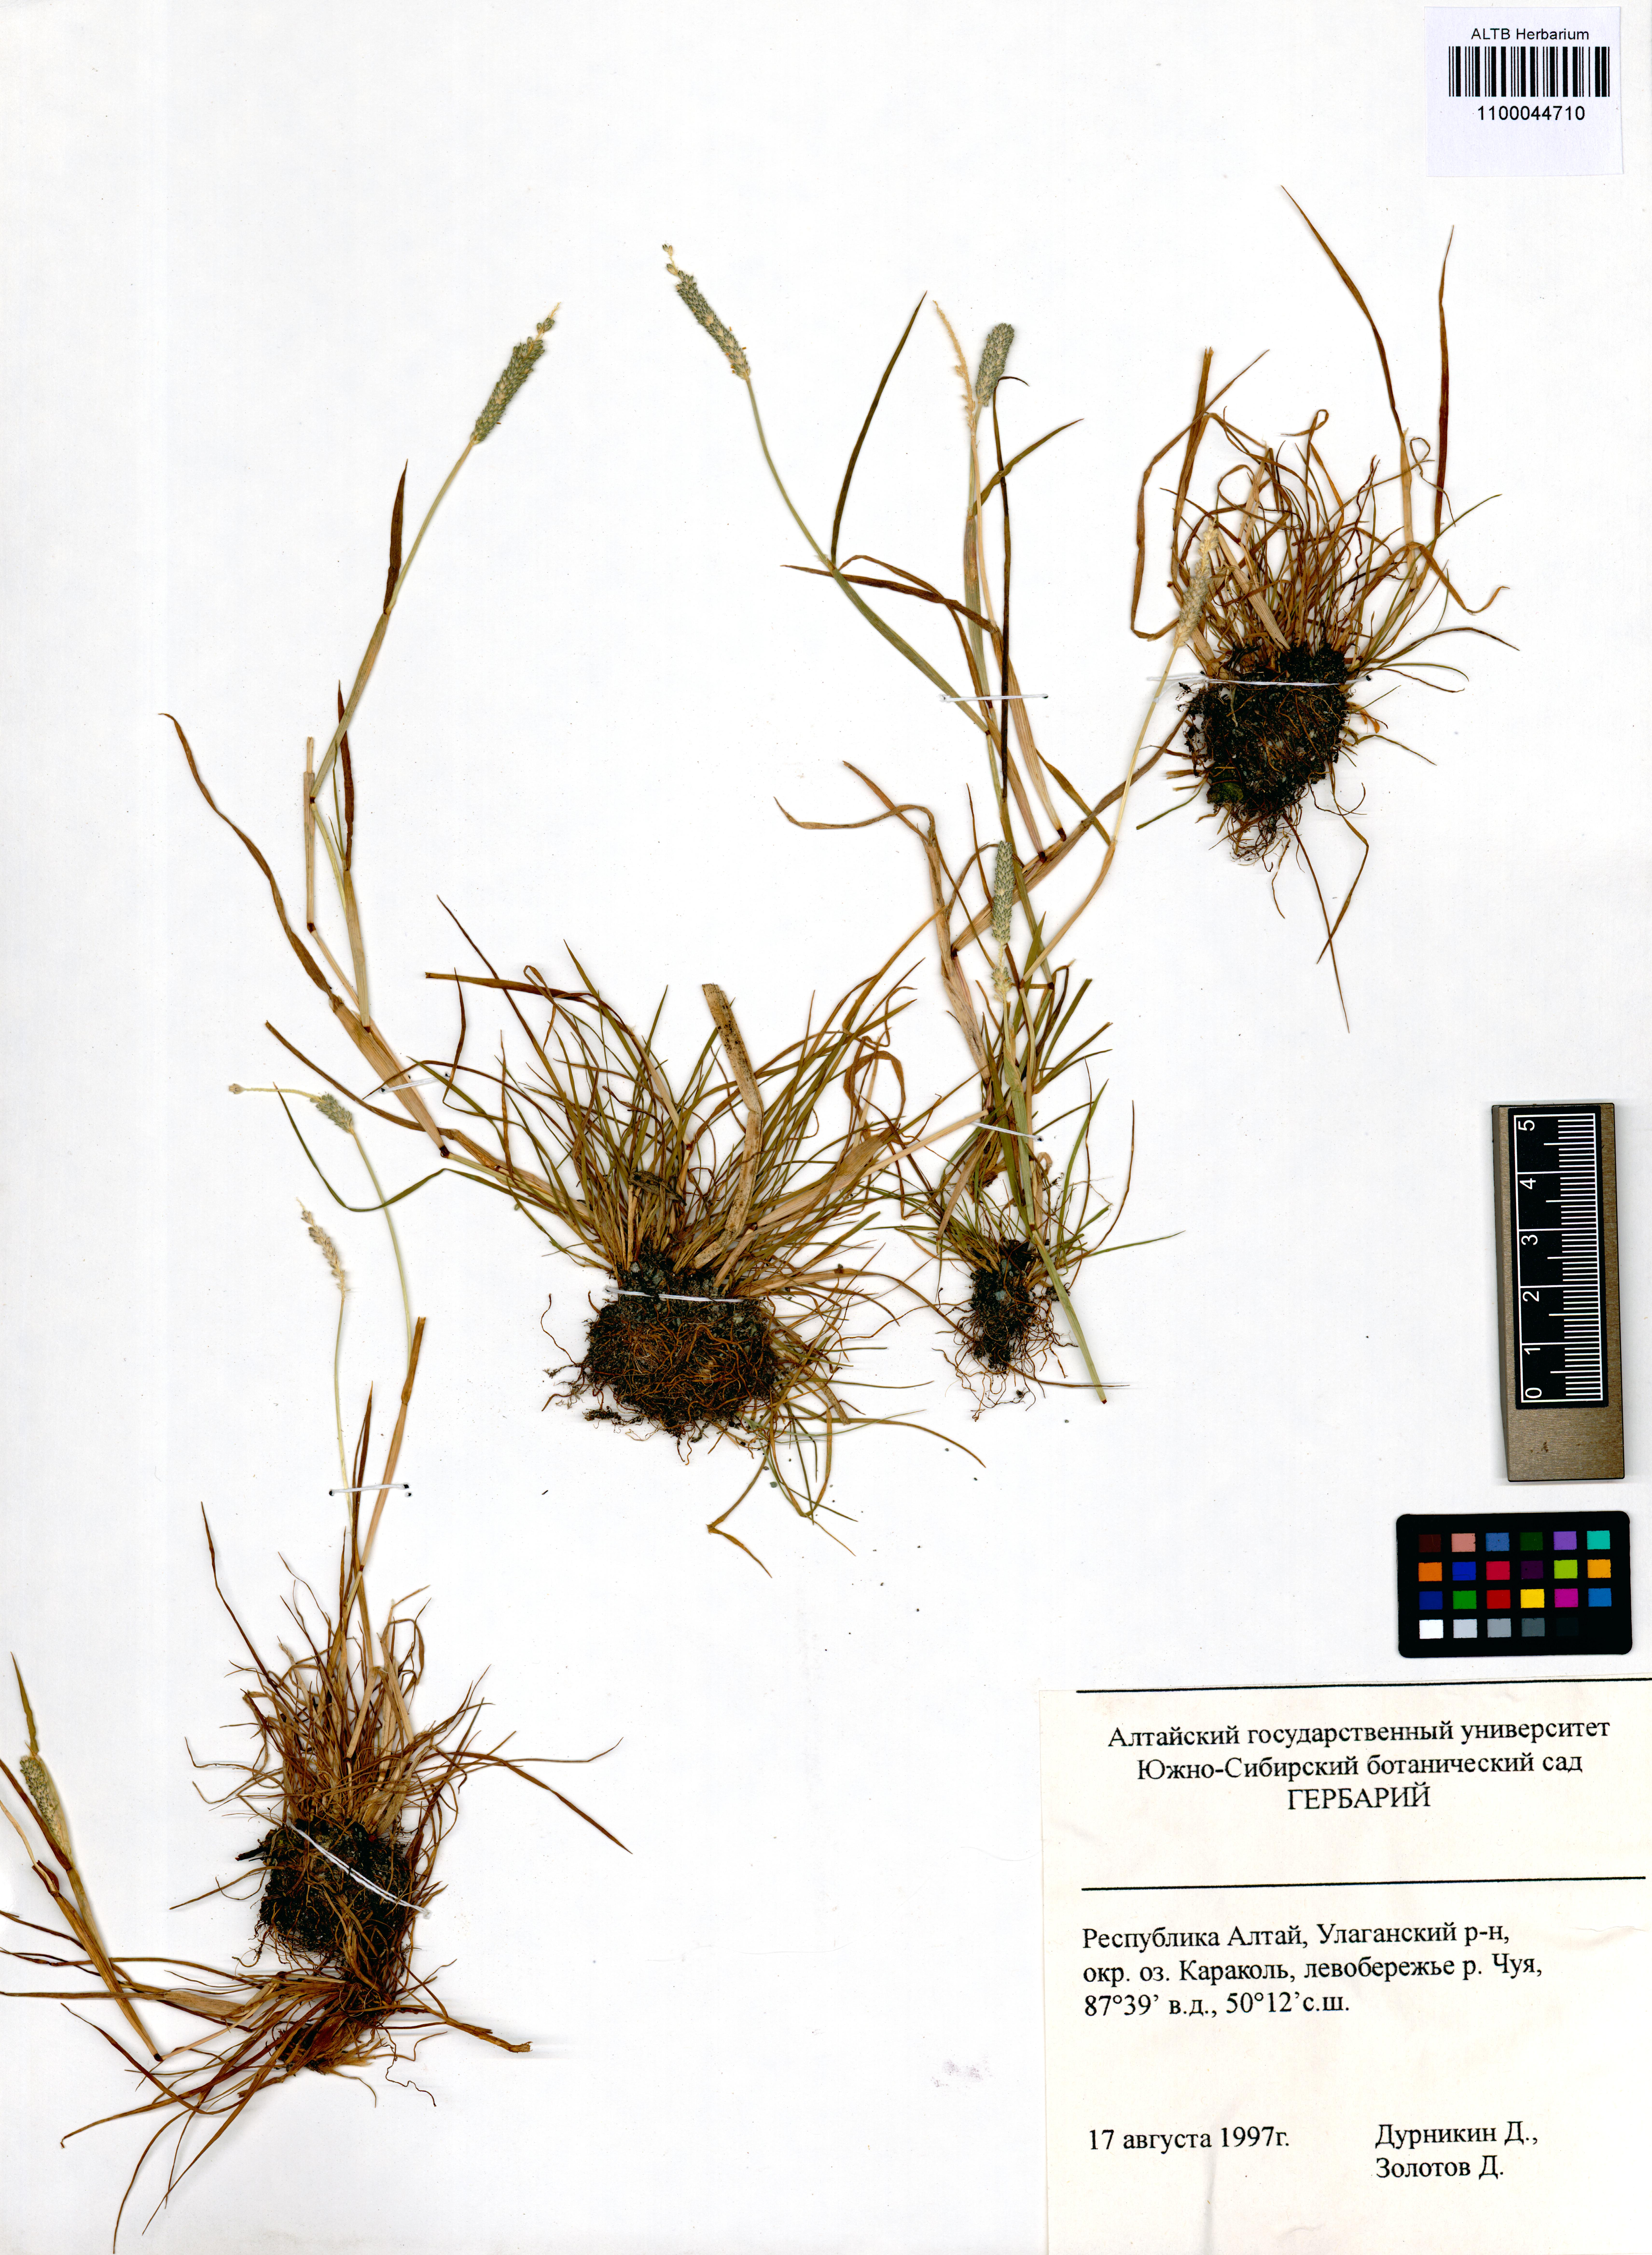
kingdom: Plantae
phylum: Tracheophyta
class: Liliopsida
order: Poales
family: Poaceae
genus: Alopecurus
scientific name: Alopecurus aequalis
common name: Orange foxtail
